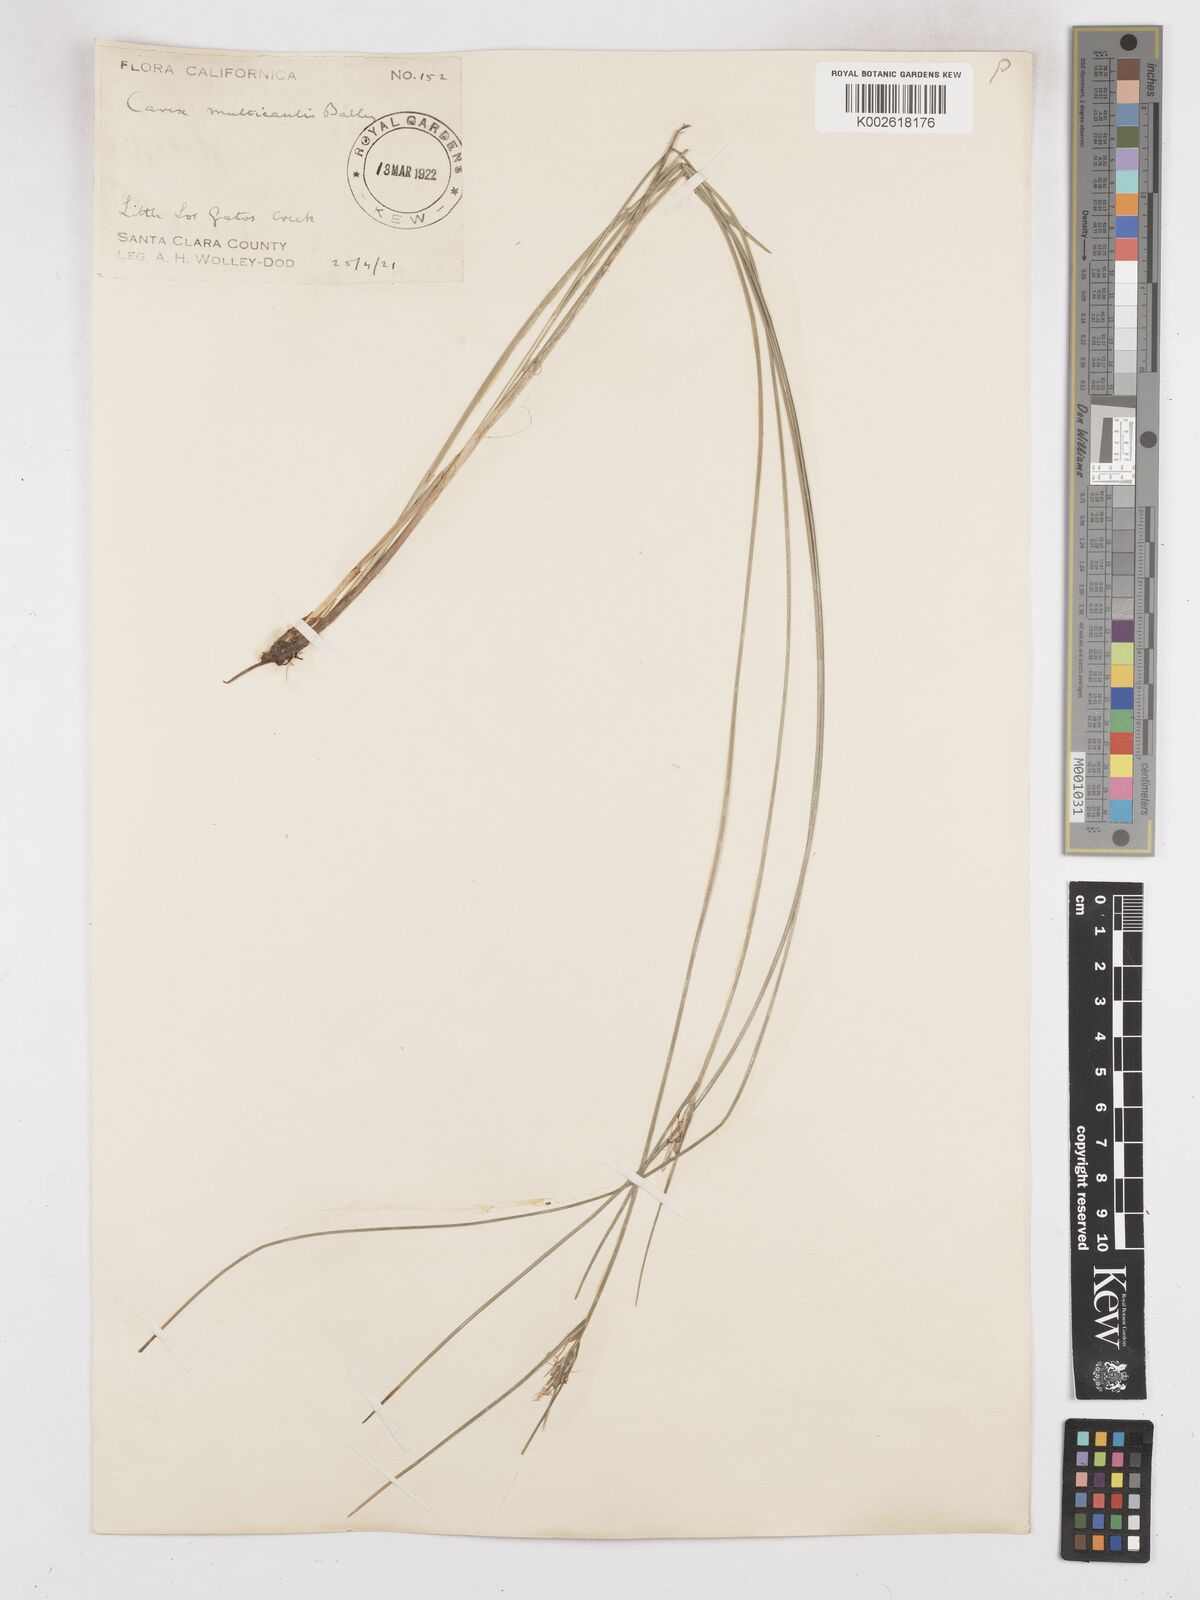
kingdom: Plantae
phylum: Tracheophyta
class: Liliopsida
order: Poales
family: Cyperaceae
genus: Carex
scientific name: Carex multicaulis
